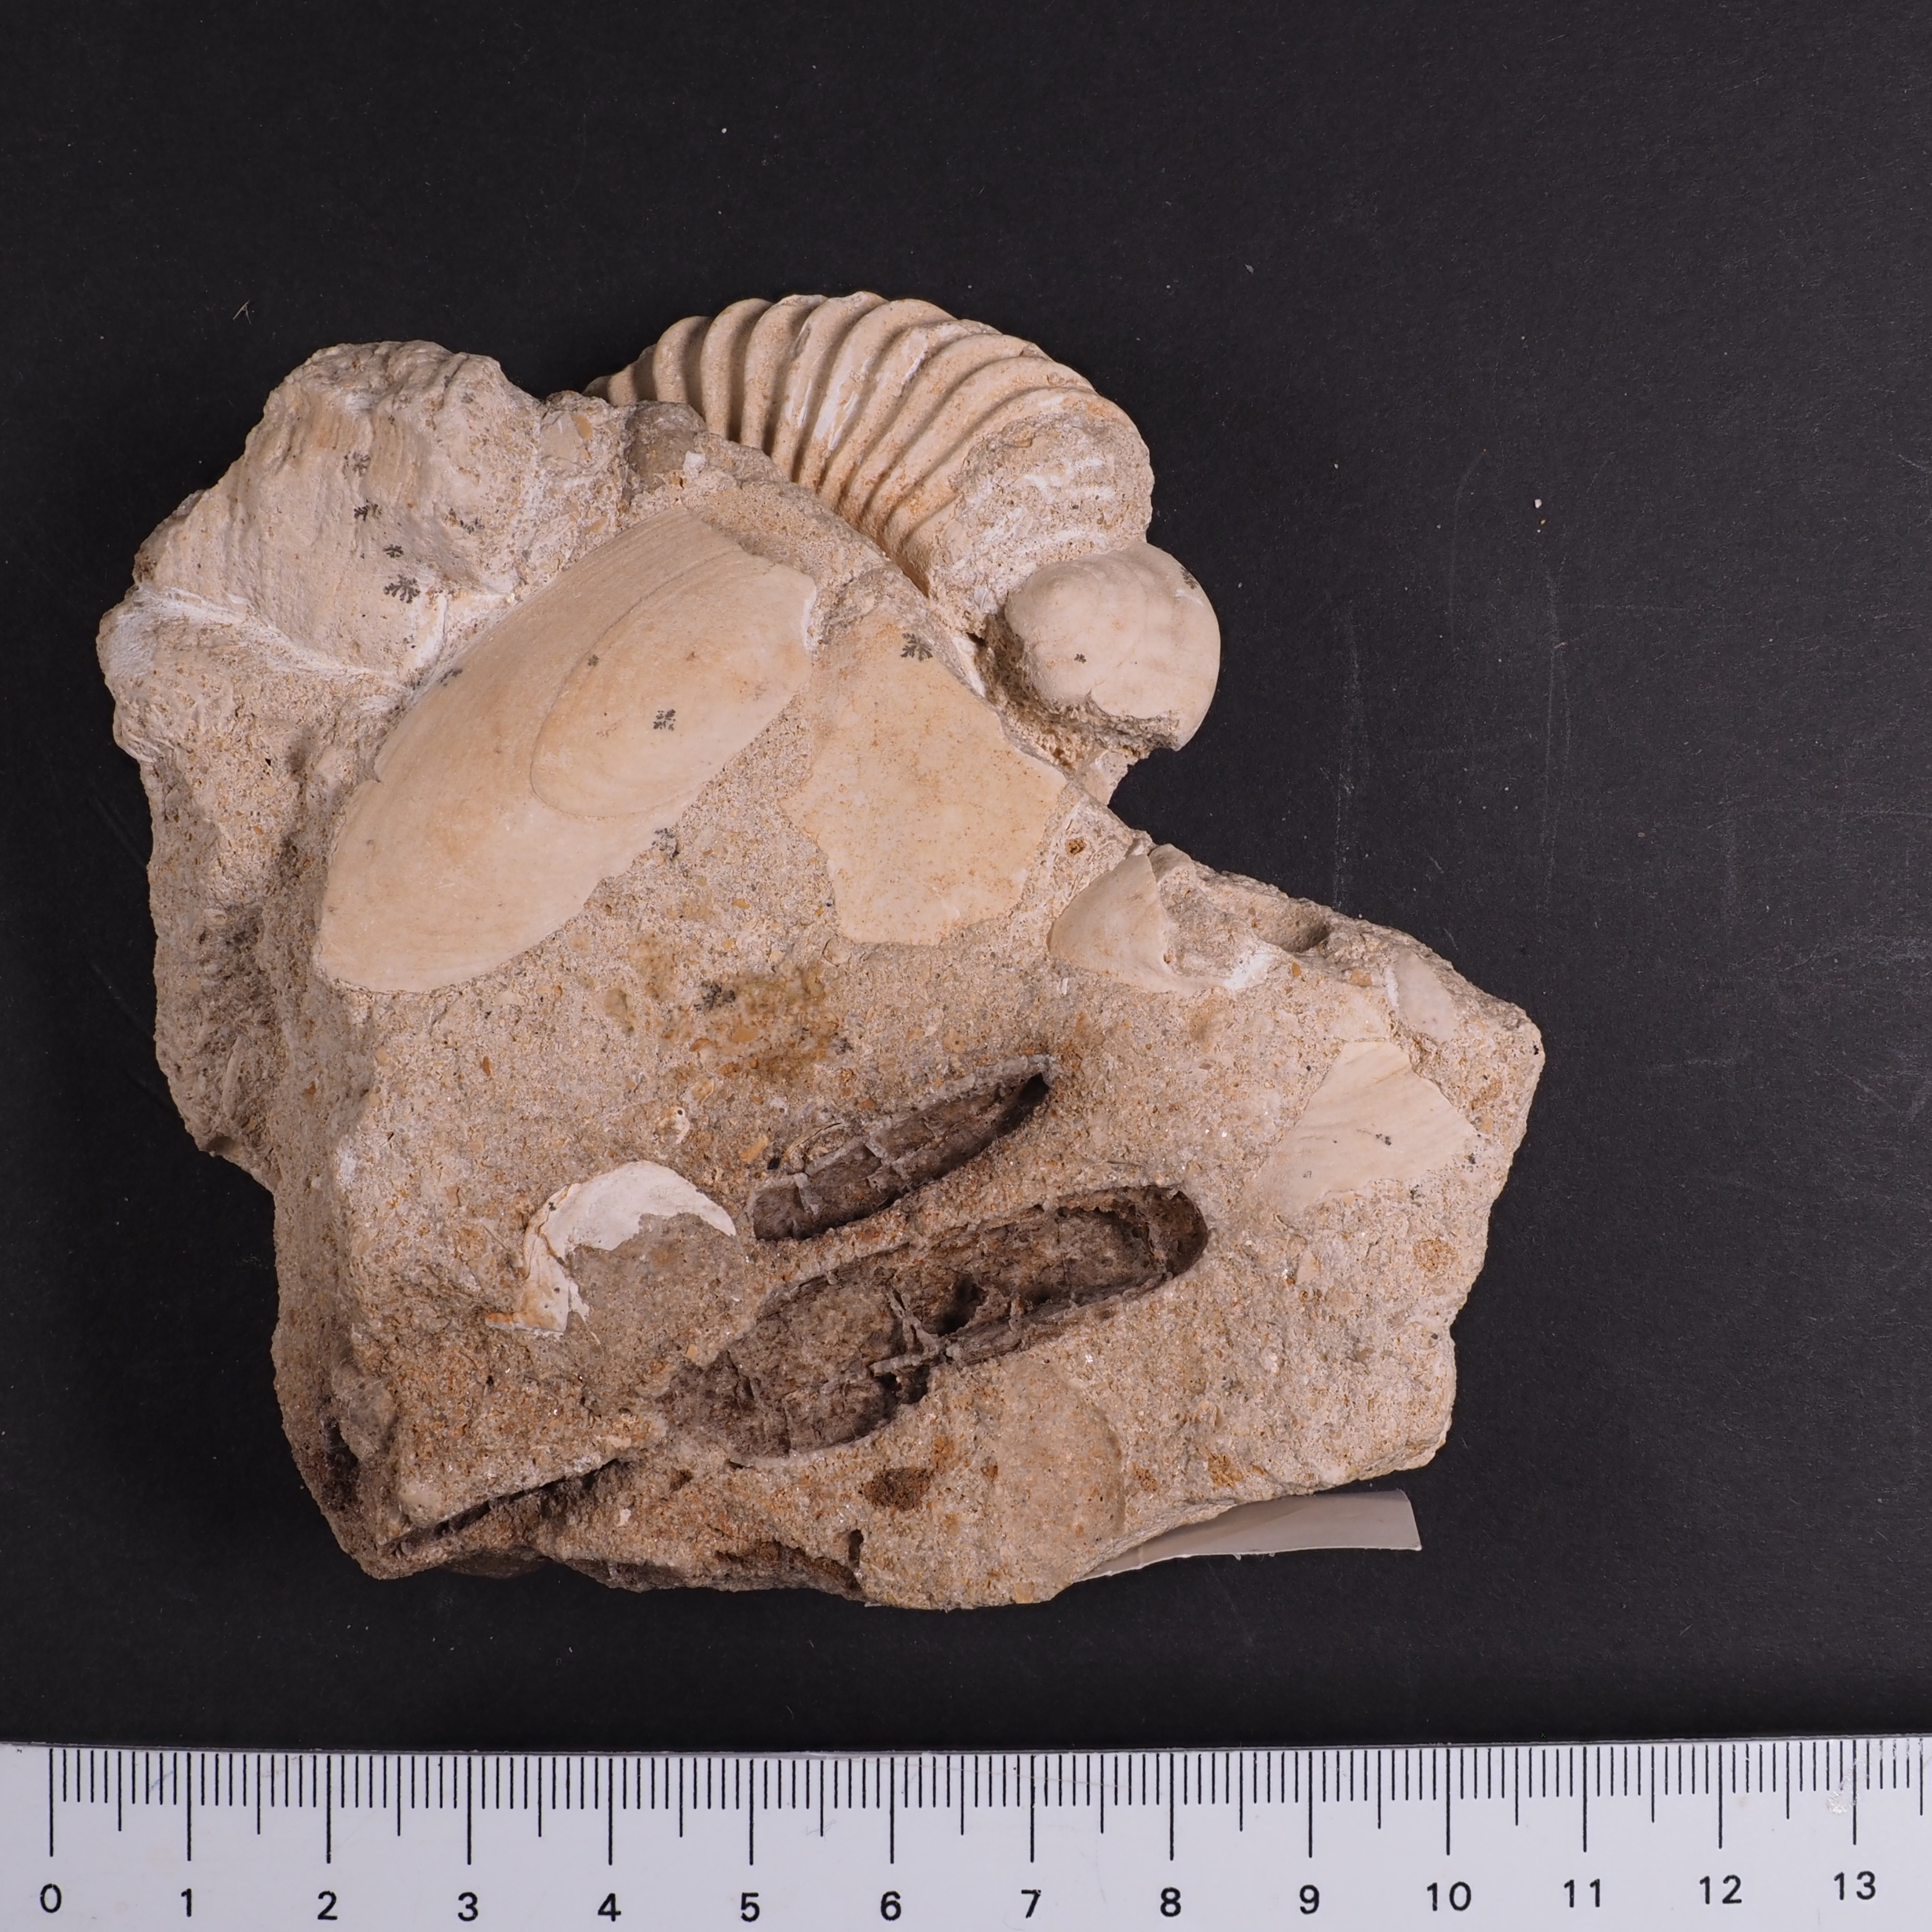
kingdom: Animalia
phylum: Mollusca
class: Cephalopoda
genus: Ammonites
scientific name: Ammonites angulatus
